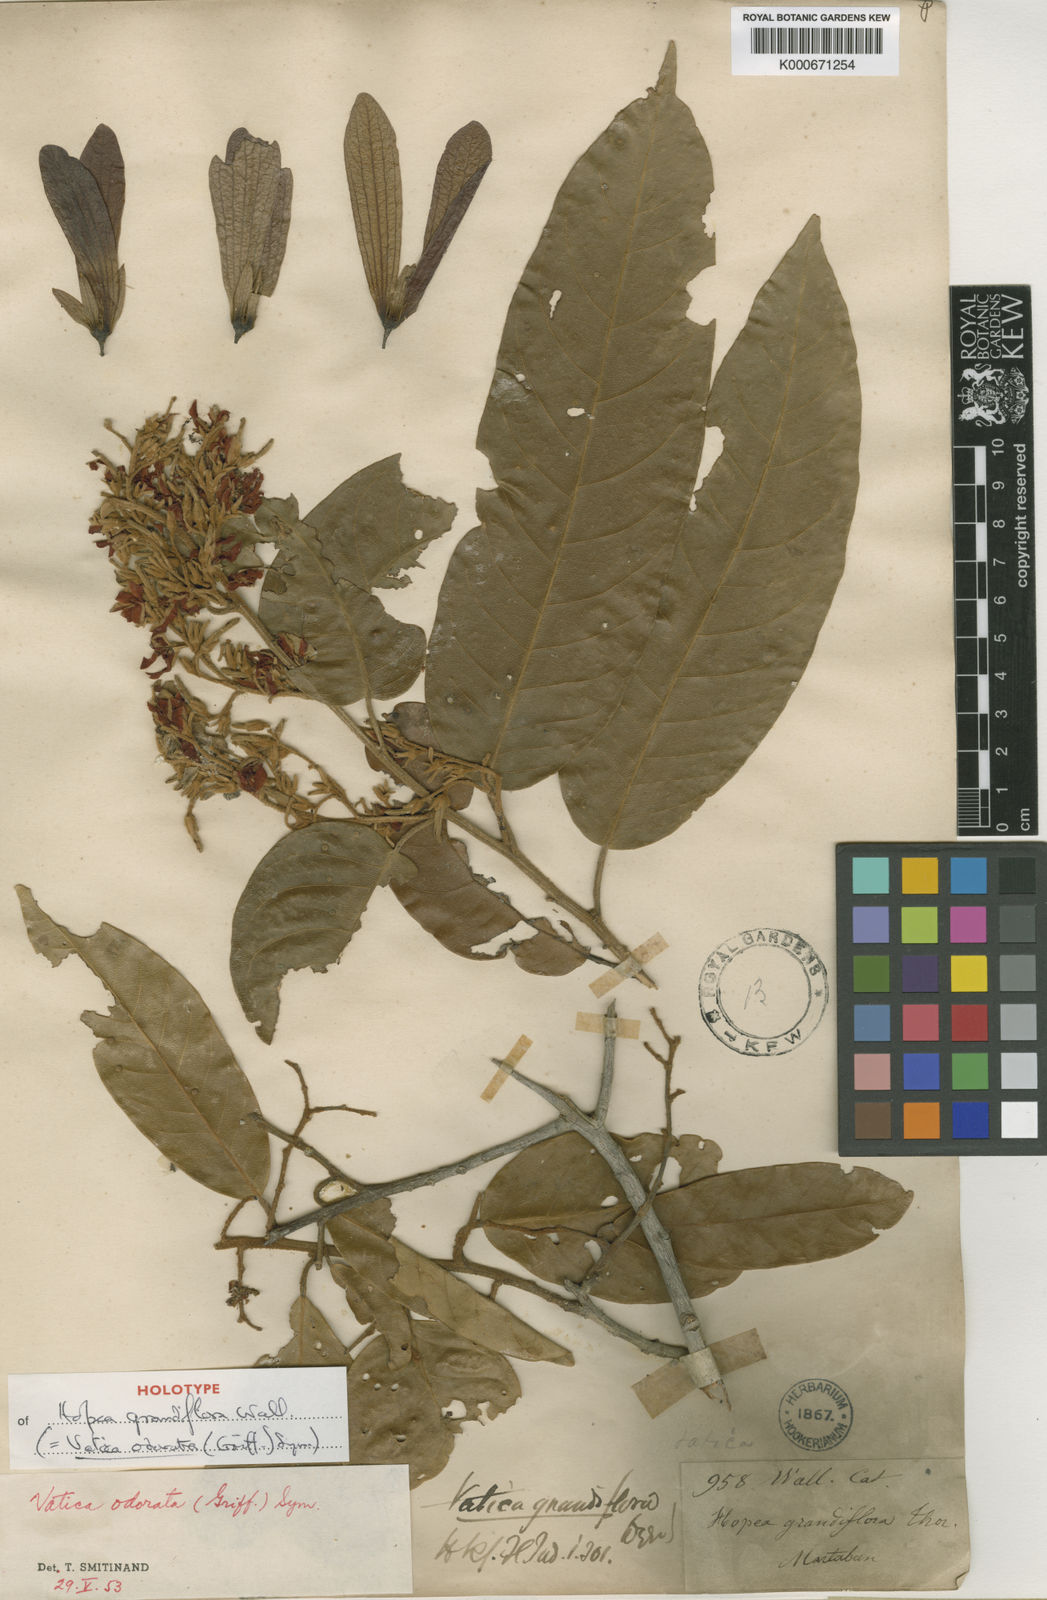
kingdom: Plantae
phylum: Tracheophyta
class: Magnoliopsida
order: Malvales
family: Dipterocarpaceae
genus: Vatica
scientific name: Vatica odorata
